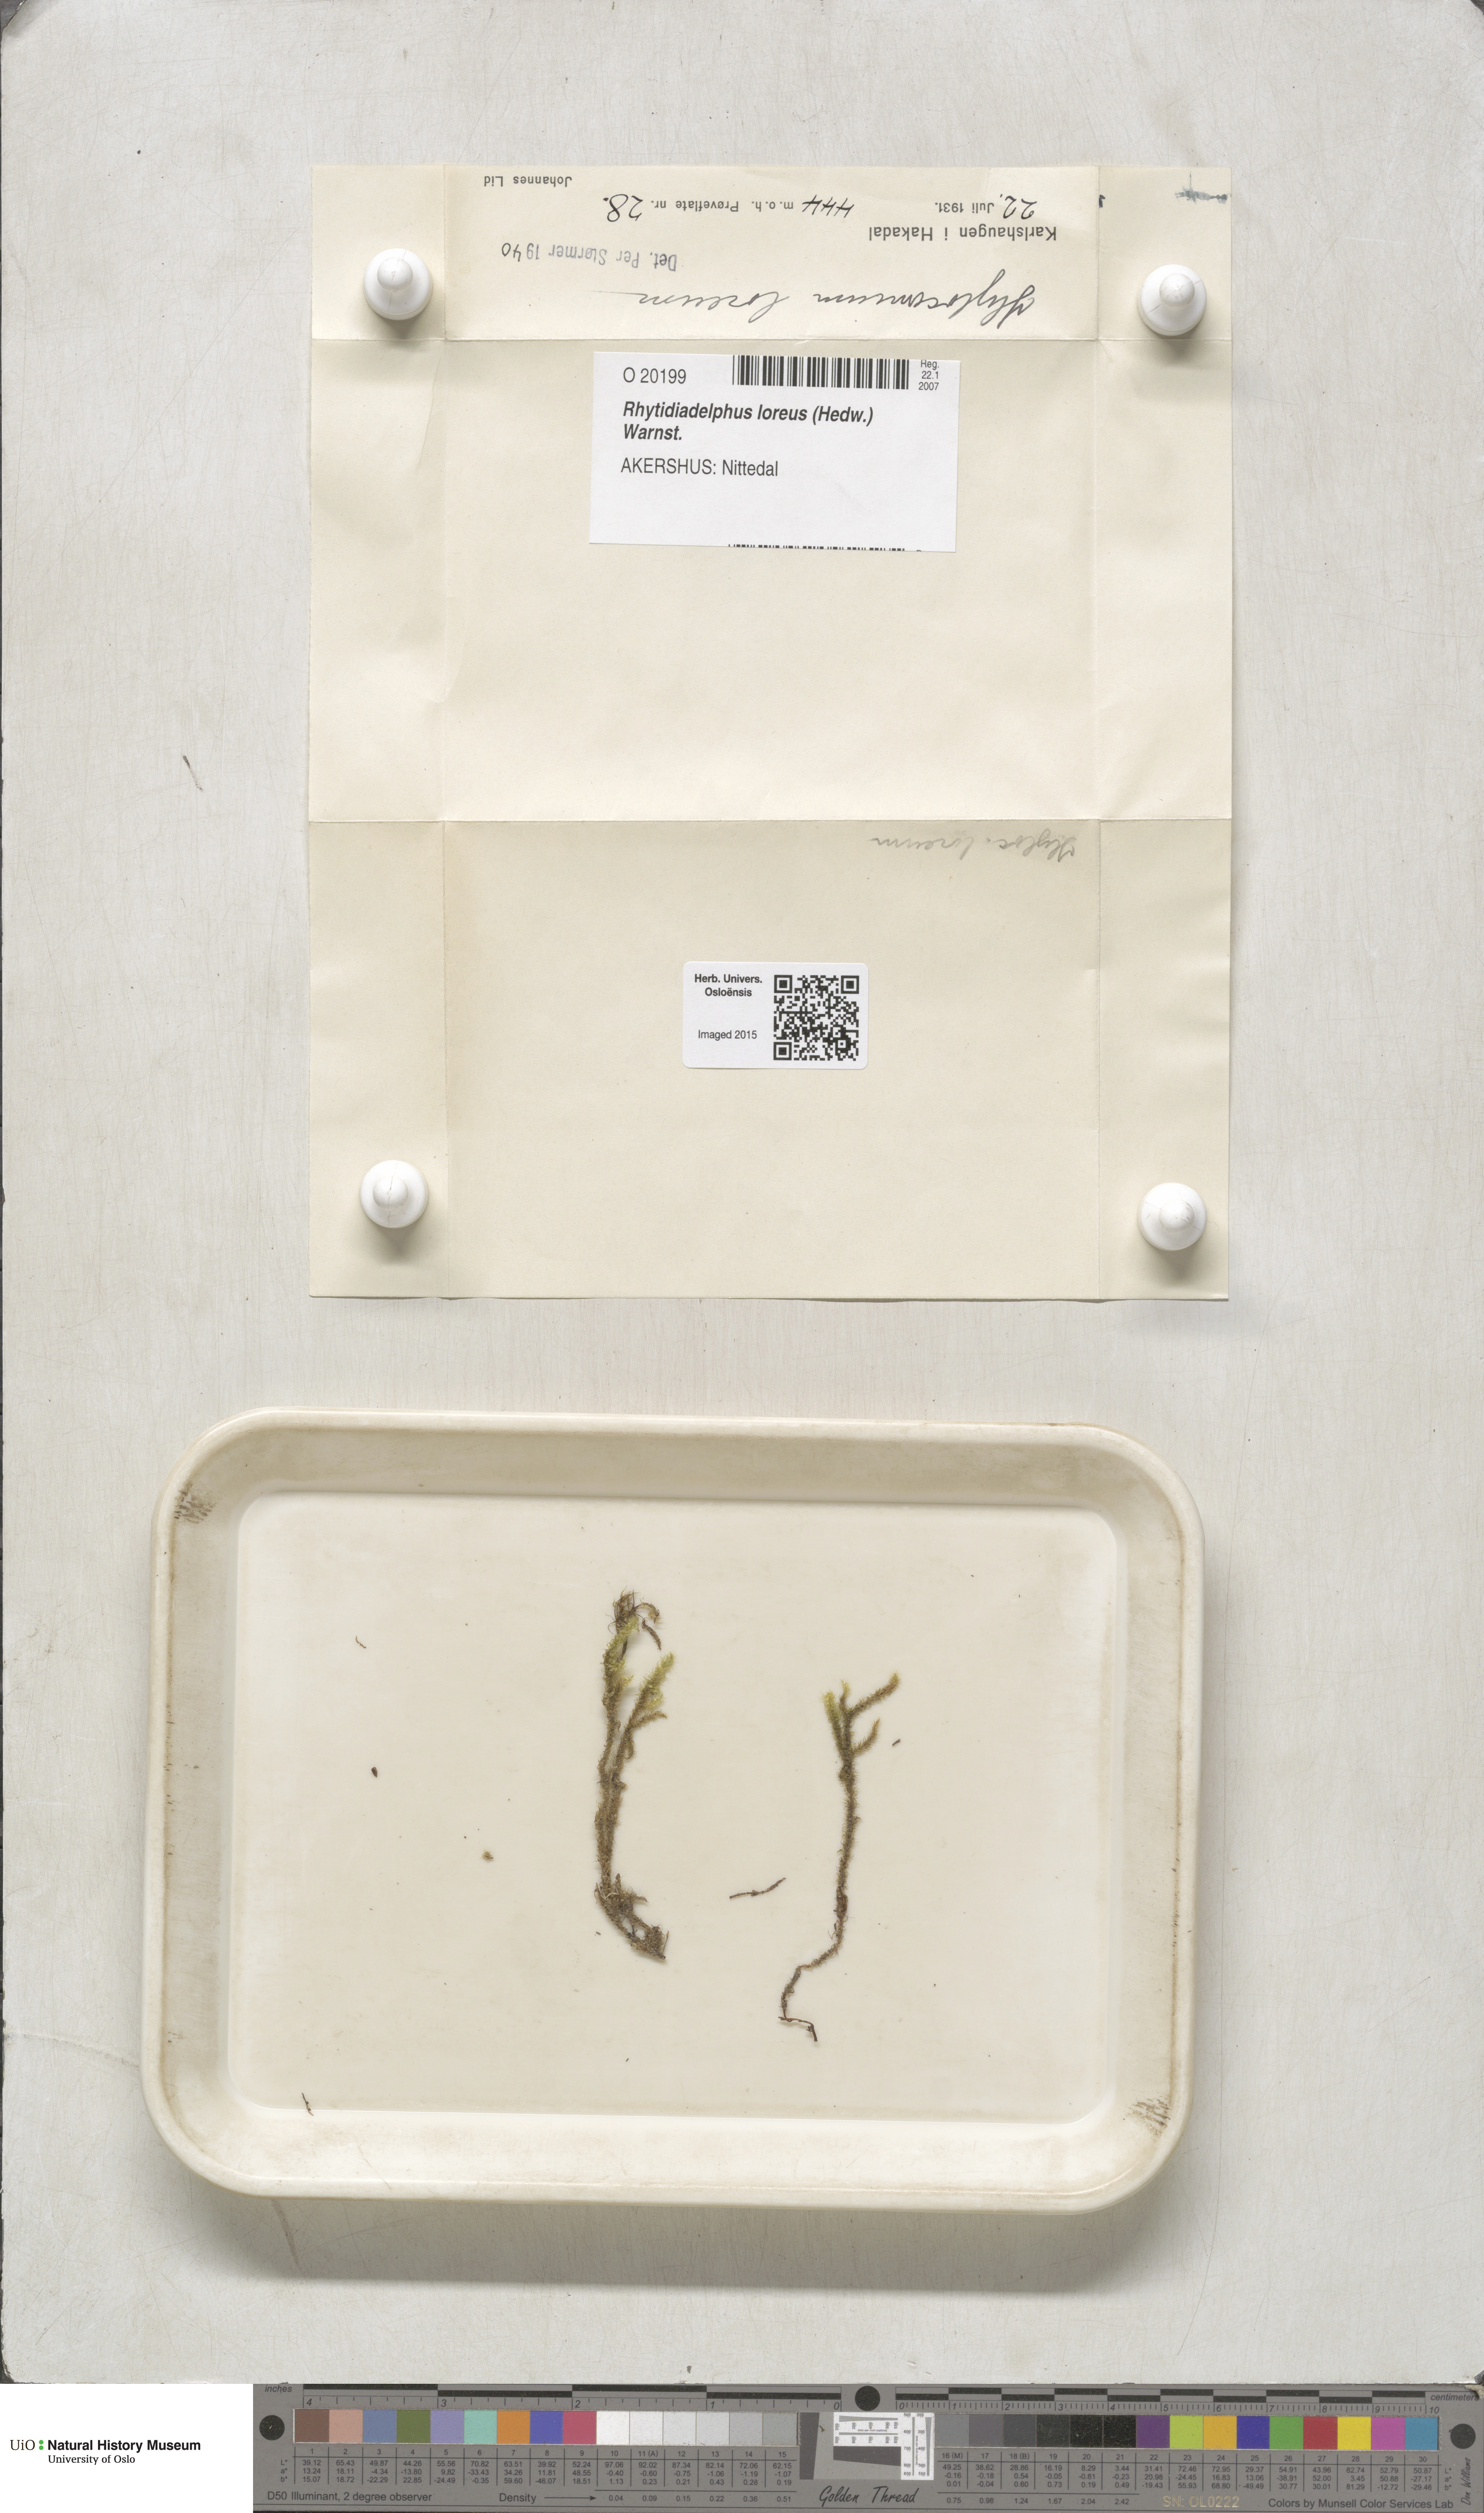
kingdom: Plantae
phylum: Bryophyta
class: Bryopsida
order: Hypnales
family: Hylocomiaceae
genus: Rhytidiadelphus
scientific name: Rhytidiadelphus loreus
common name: Lanky moss
